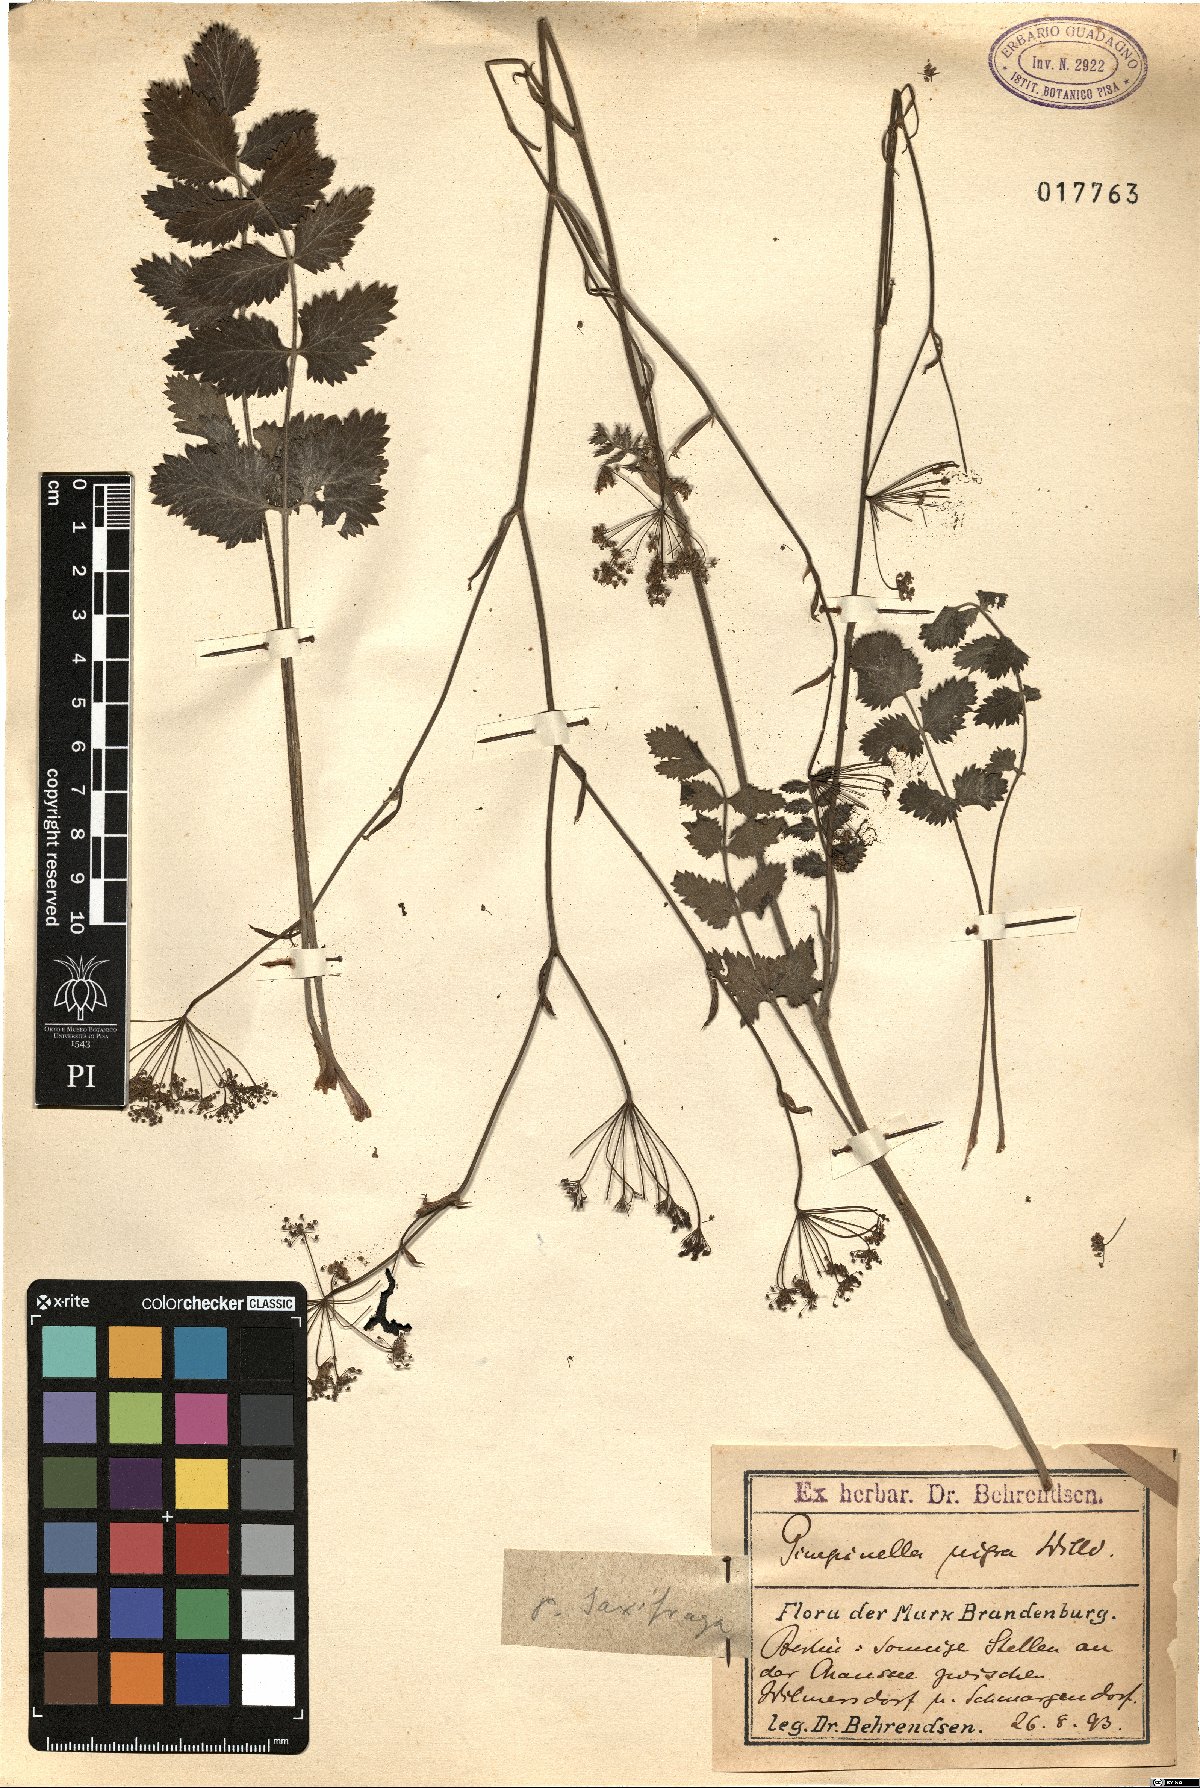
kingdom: Plantae
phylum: Tracheophyta
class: Magnoliopsida
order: Apiales
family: Apiaceae
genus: Pimpinella
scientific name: Pimpinella nigra
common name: Black pimpinella
